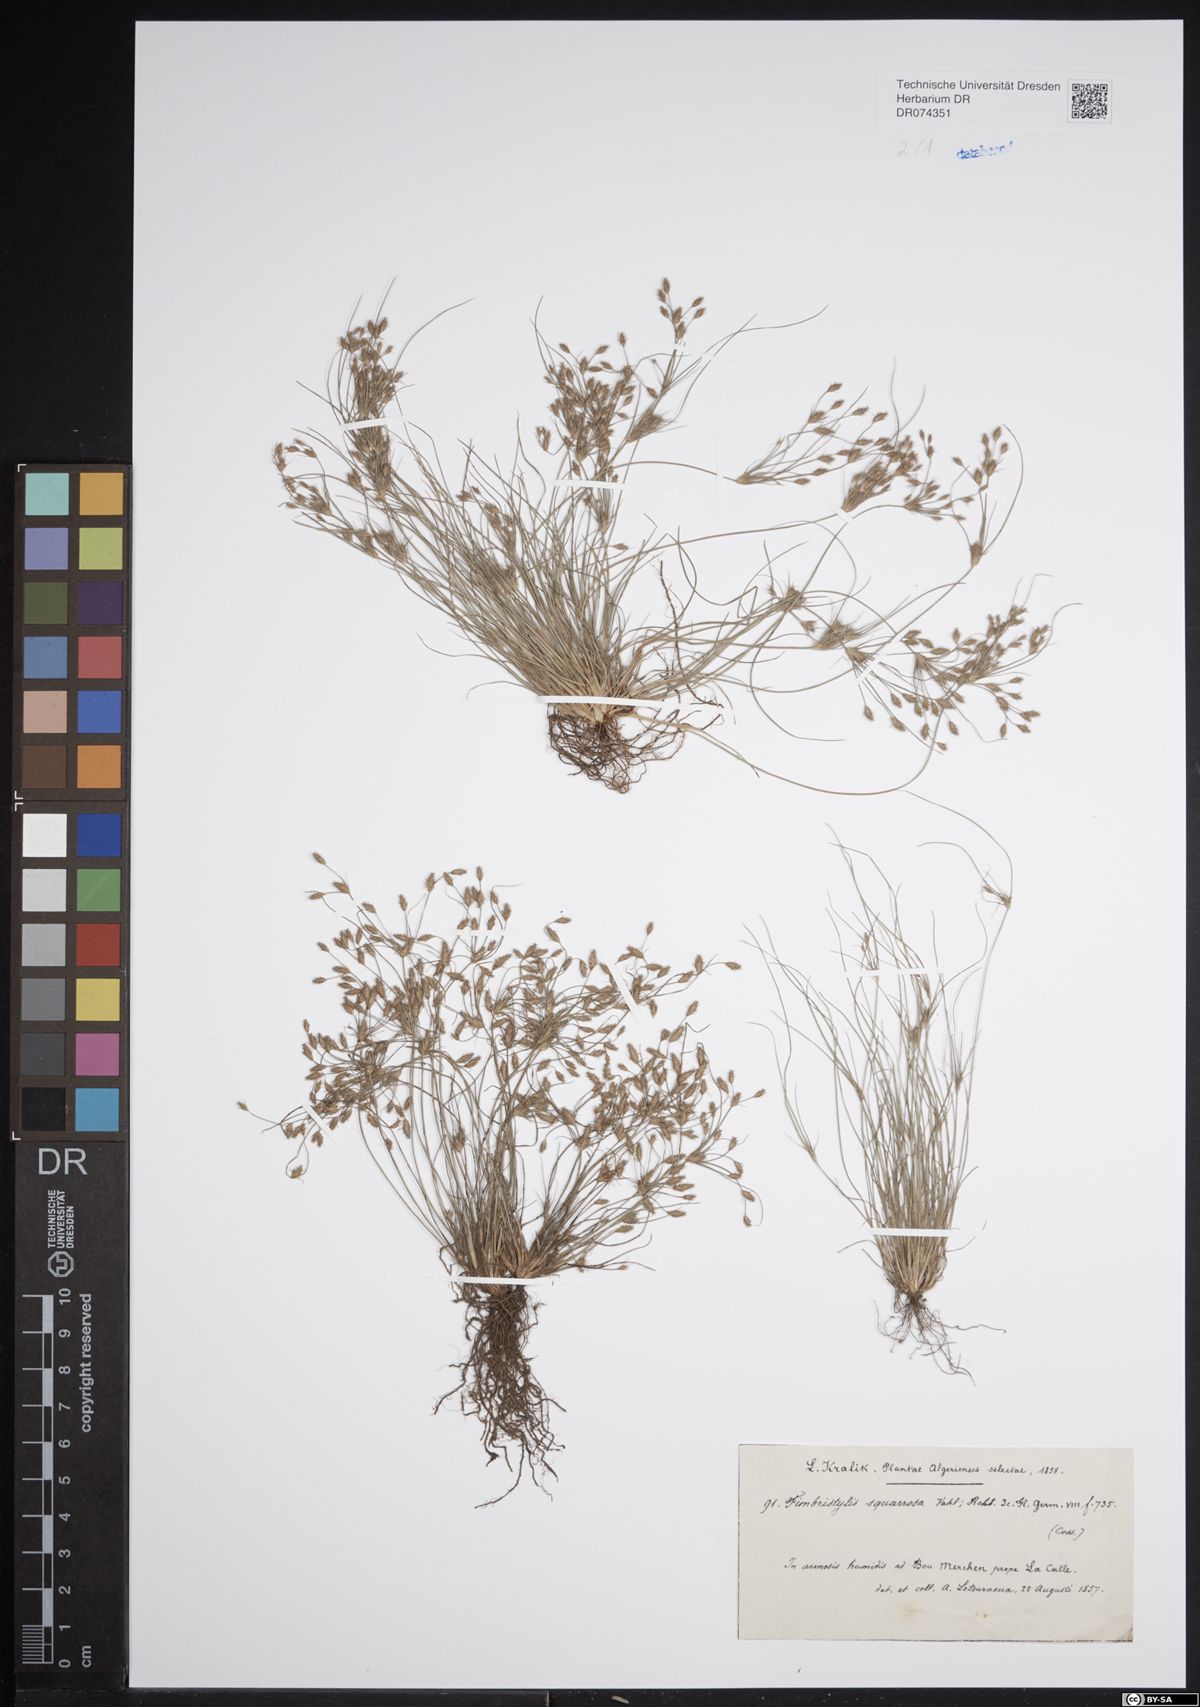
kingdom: Plantae
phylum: Tracheophyta
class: Liliopsida
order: Poales
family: Cyperaceae
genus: Fimbristylis
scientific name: Fimbristylis squarrosa
